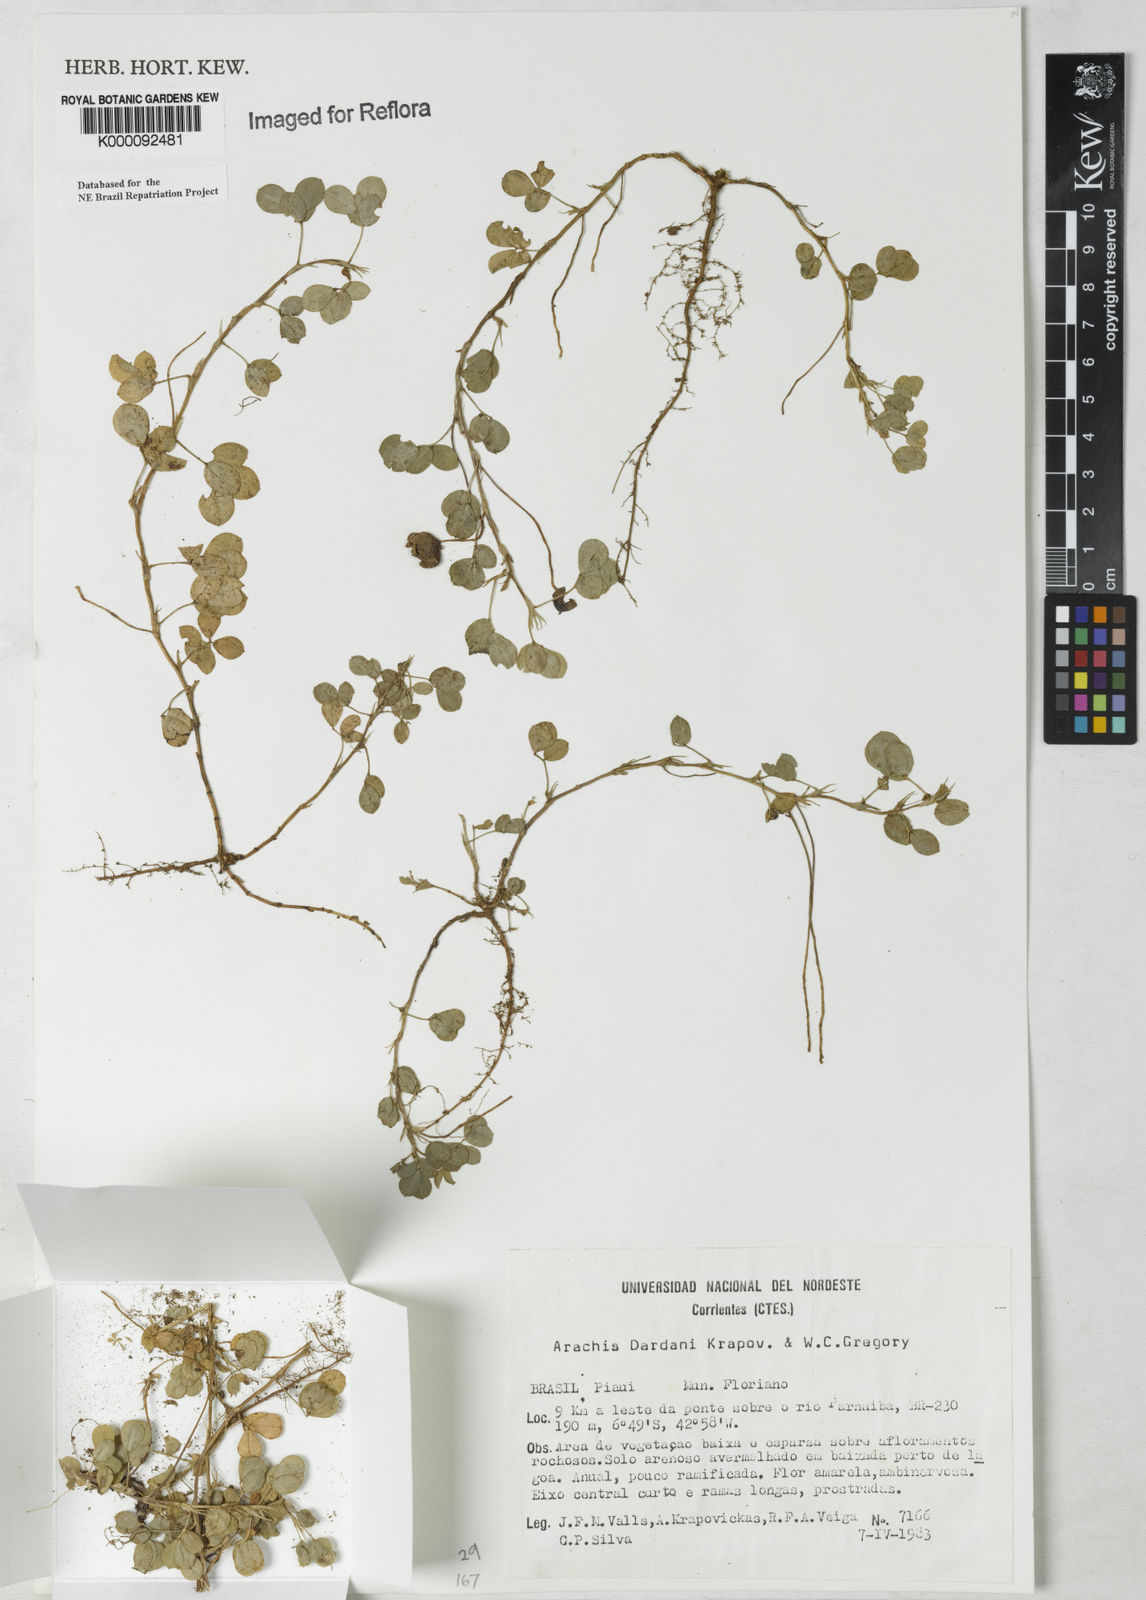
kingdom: Plantae
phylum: Tracheophyta
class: Magnoliopsida
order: Fabales
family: Fabaceae
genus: Arachis
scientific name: Arachis
